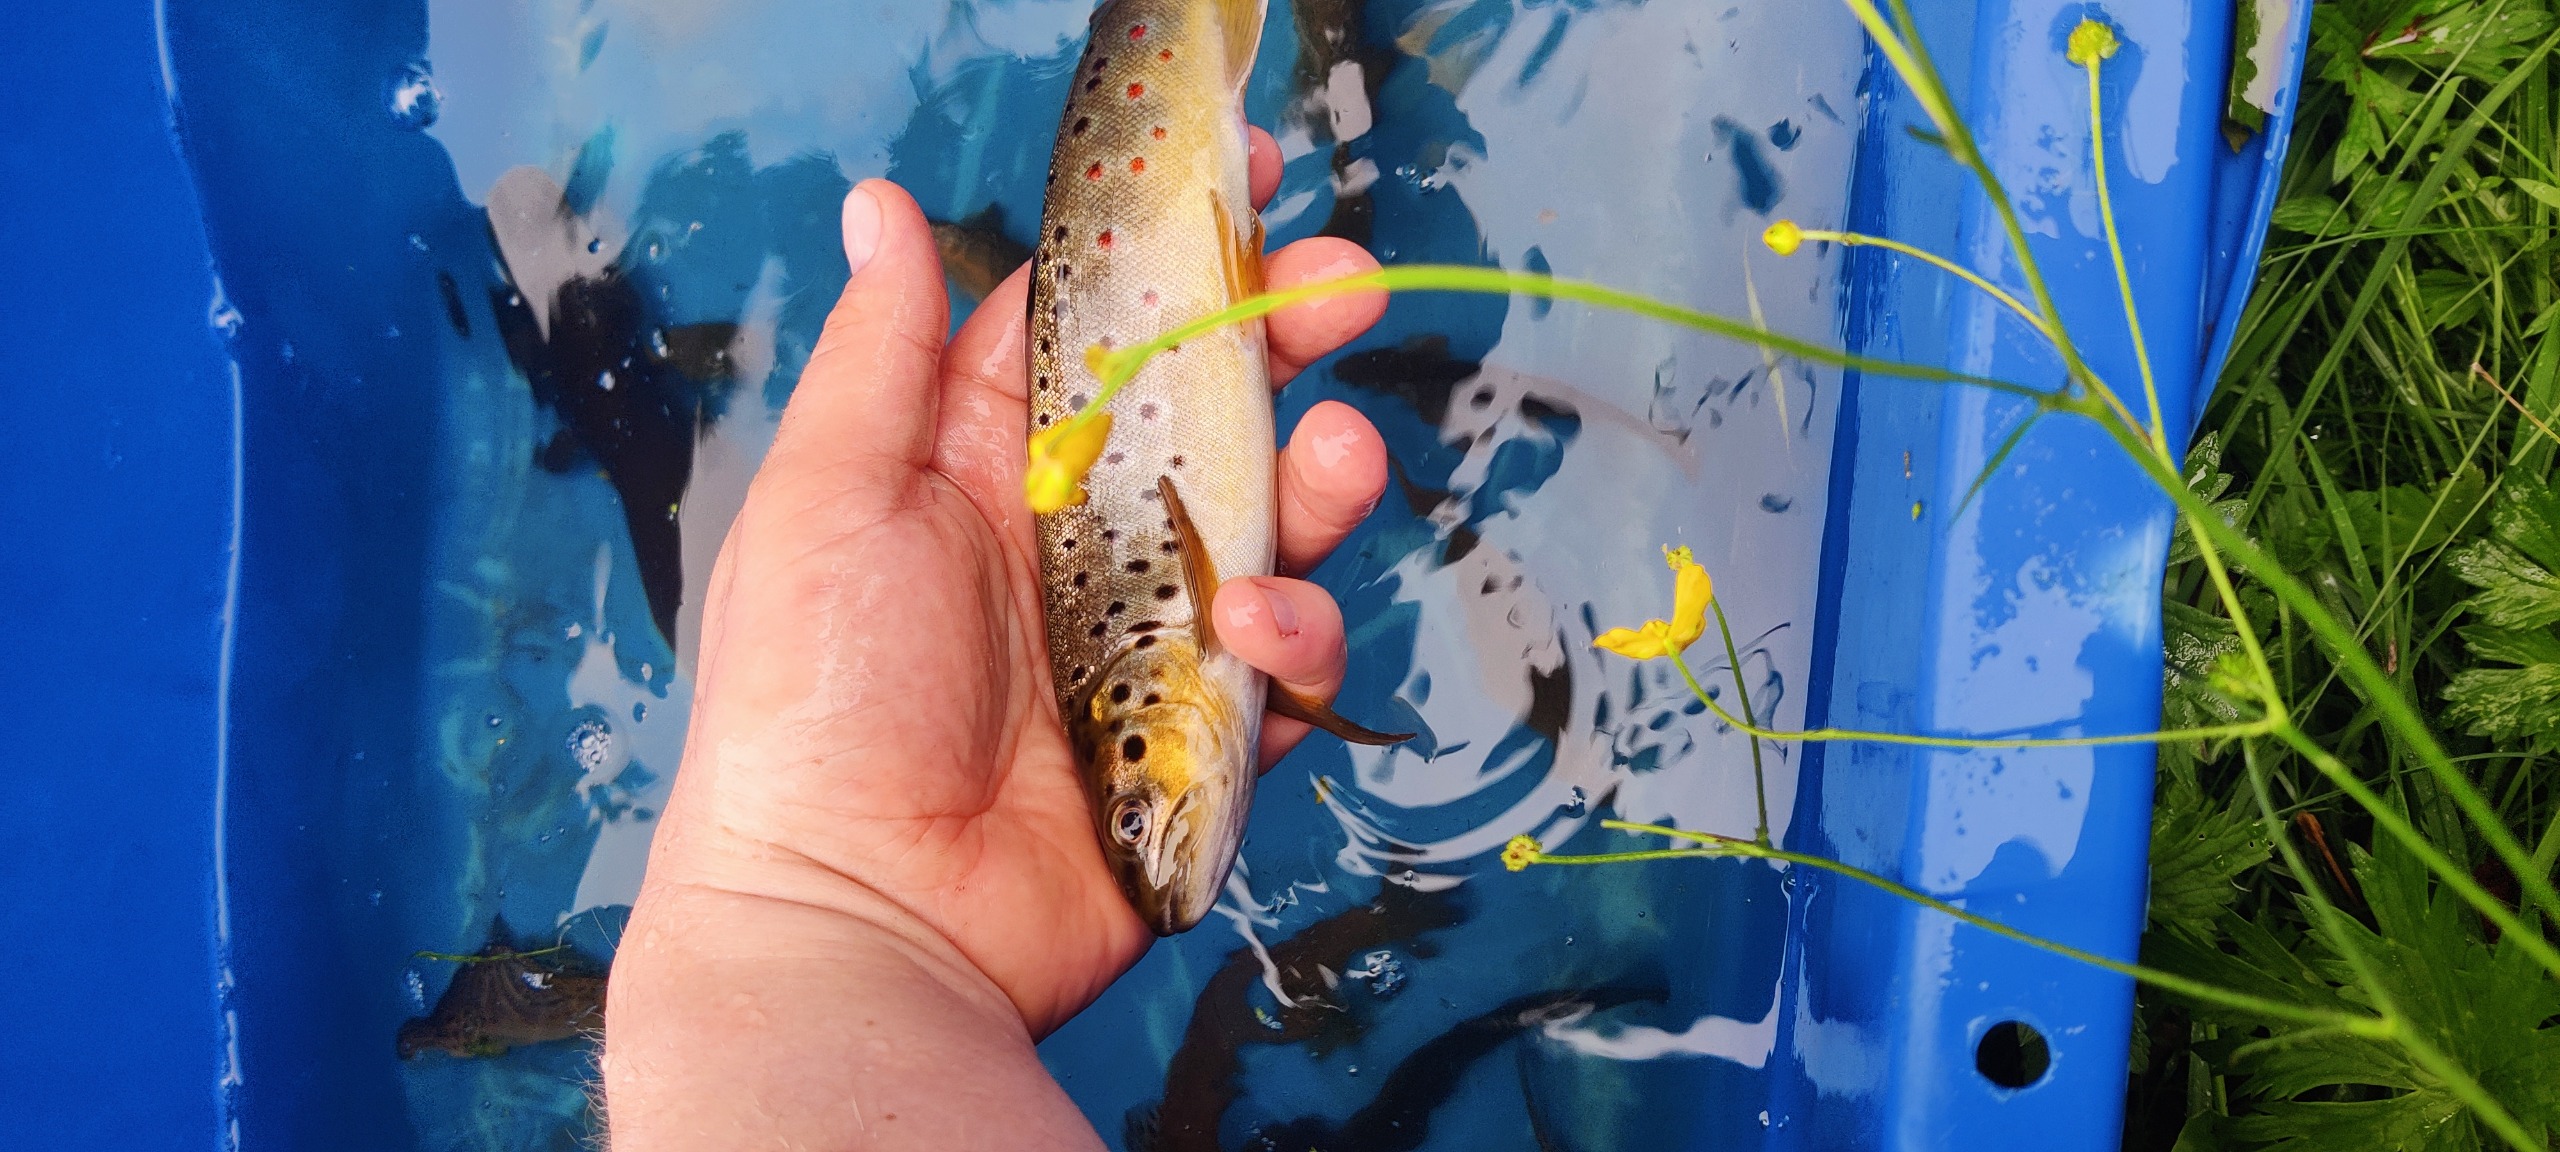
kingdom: Animalia
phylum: Chordata
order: Salmoniformes
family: Salmonidae
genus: Salmo
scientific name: Salmo trutta
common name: Ørred
